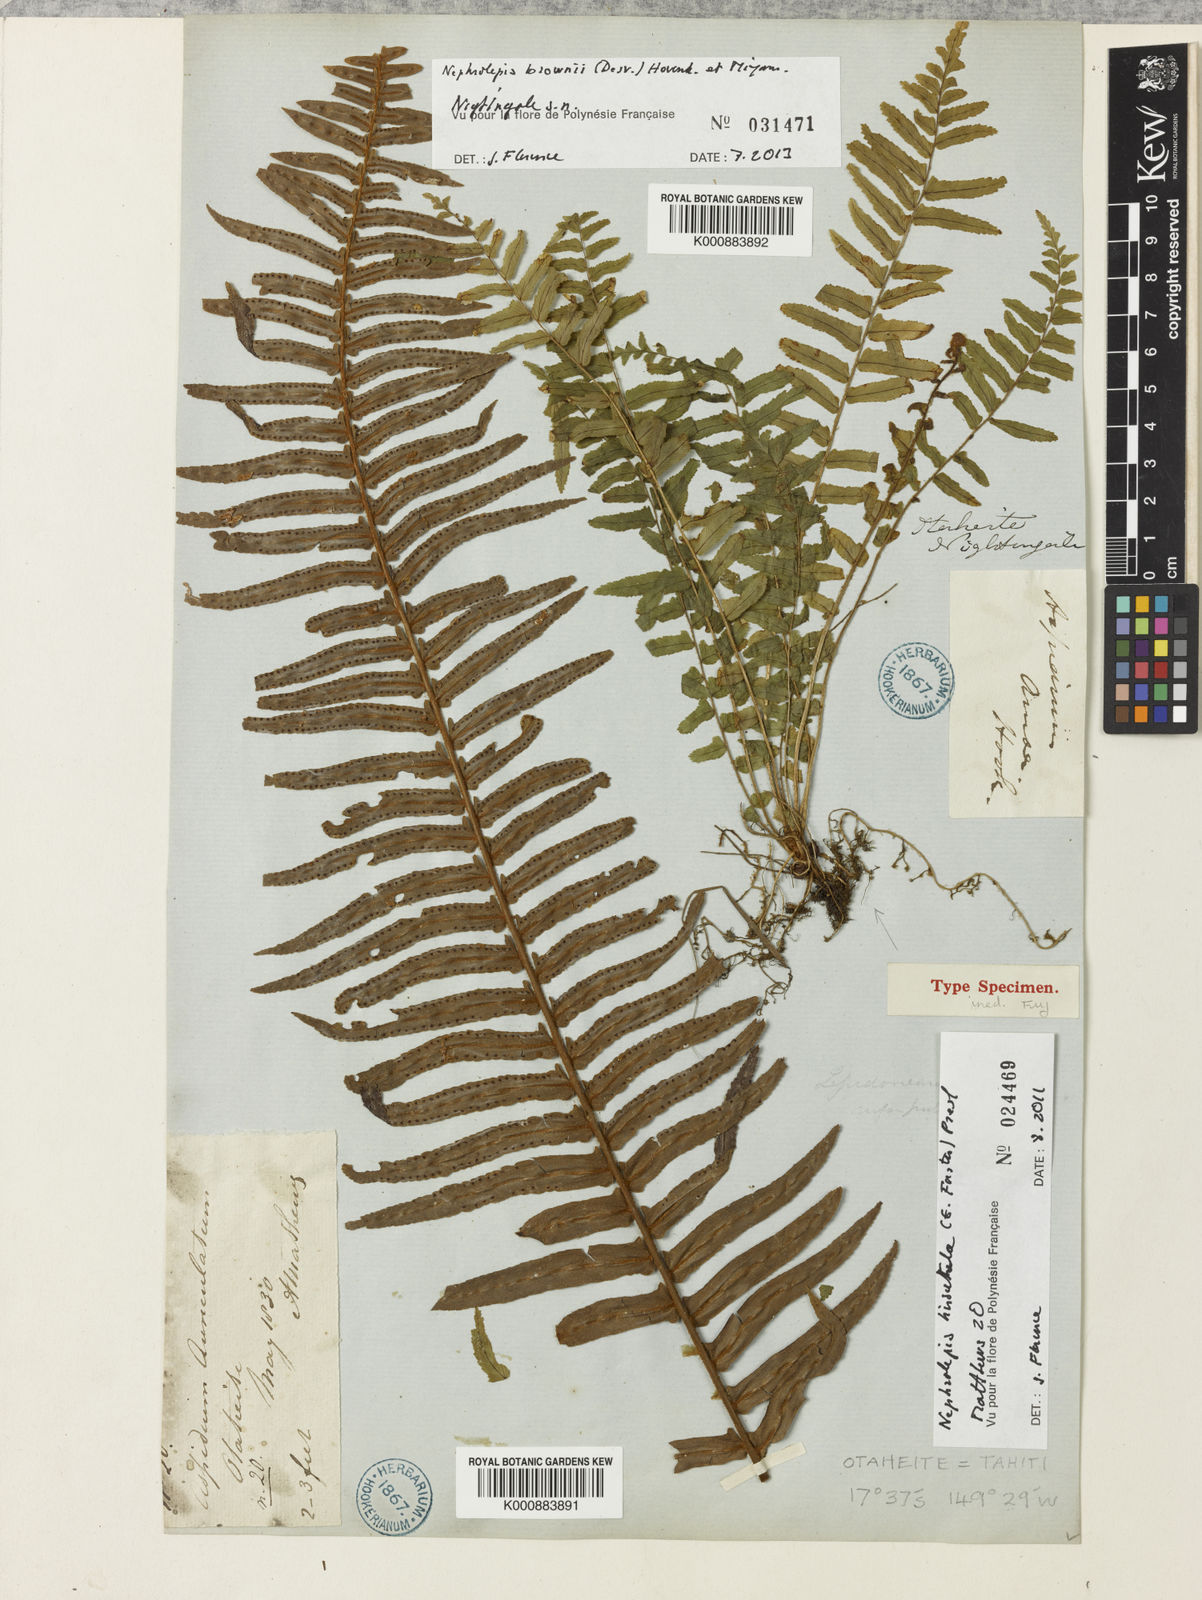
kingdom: Plantae
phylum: Tracheophyta
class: Polypodiopsida
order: Polypodiales
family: Nephrolepidaceae
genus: Nephrolepis
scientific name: Nephrolepis hirsutula
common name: Asian sword fern
